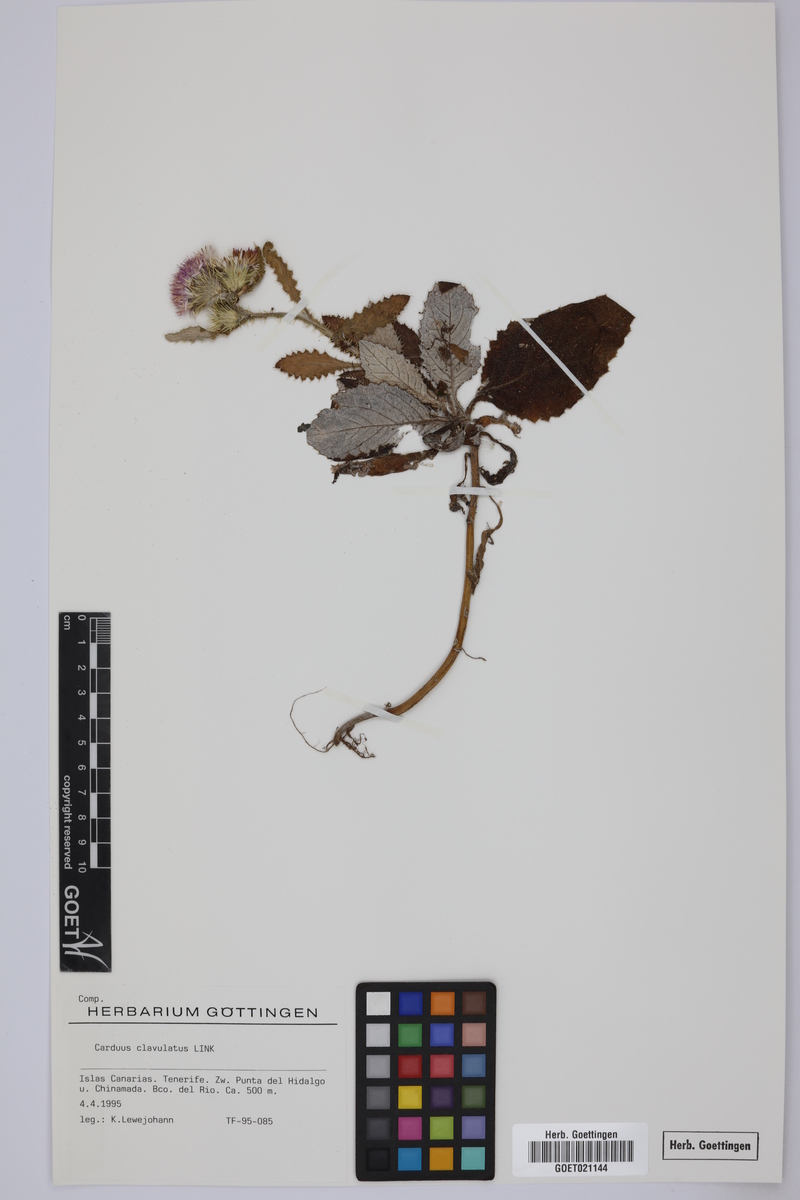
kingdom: Plantae
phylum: Tracheophyta
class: Magnoliopsida
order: Asterales
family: Asteraceae
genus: Carduus
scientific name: Carduus clavulatus
